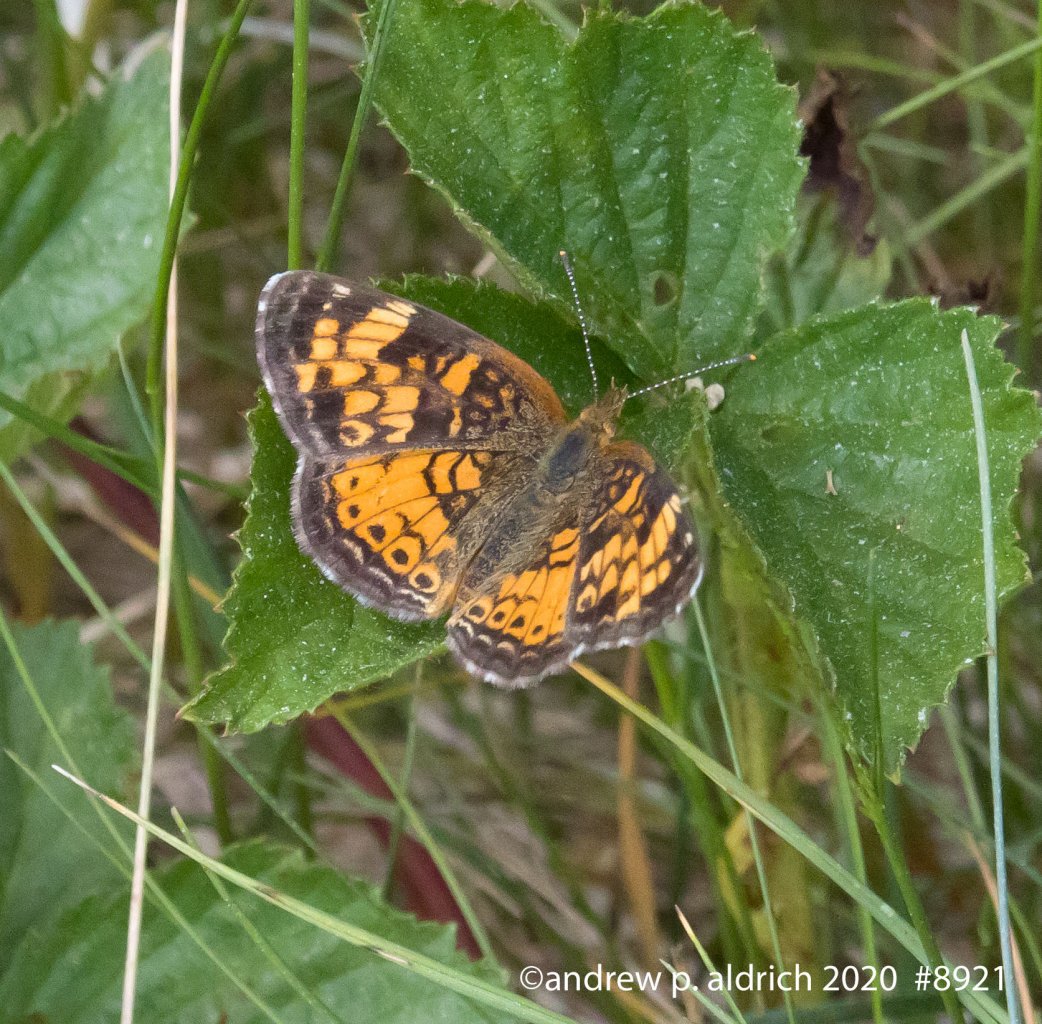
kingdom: Animalia
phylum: Arthropoda
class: Insecta
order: Lepidoptera
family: Nymphalidae
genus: Phyciodes
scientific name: Phyciodes
